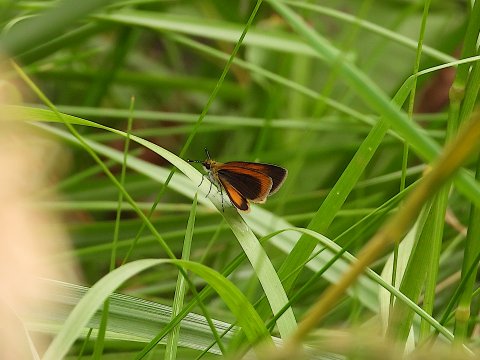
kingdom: Animalia
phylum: Arthropoda
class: Insecta
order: Lepidoptera
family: Hesperiidae
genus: Ancyloxypha
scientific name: Ancyloxypha numitor
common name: Least Skipper
